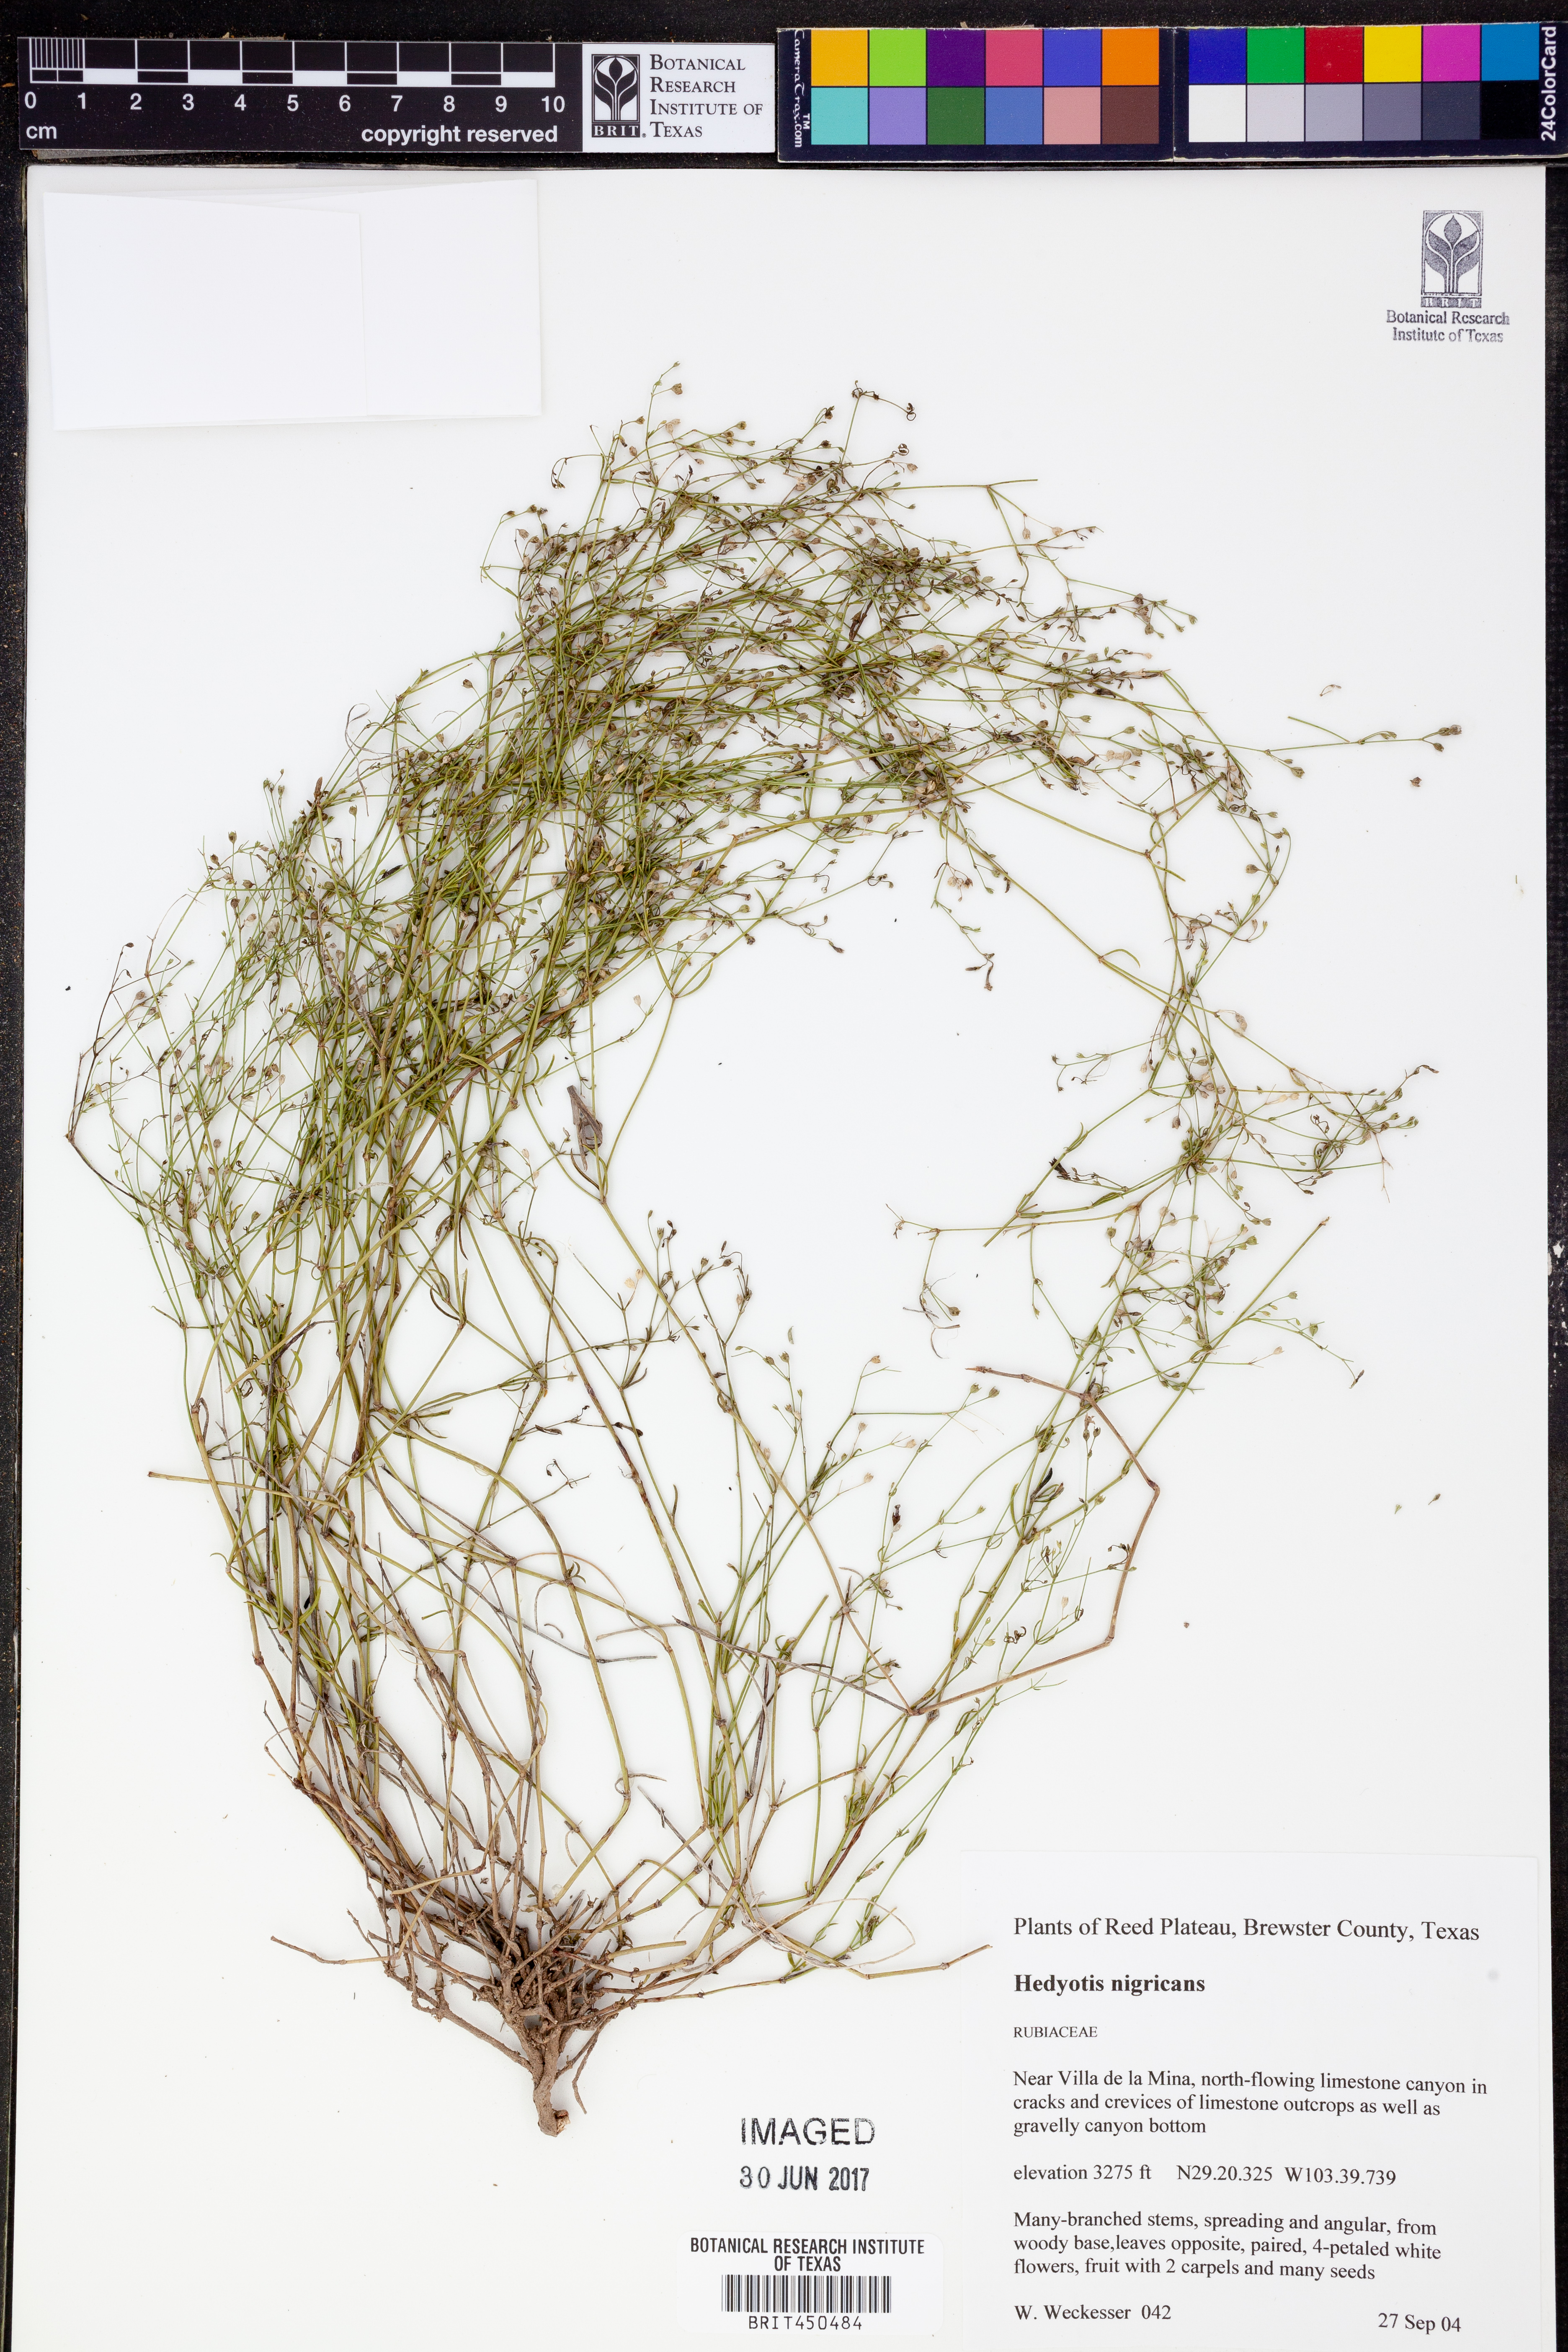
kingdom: Plantae
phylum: Tracheophyta
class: Magnoliopsida
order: Gentianales
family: Rubiaceae
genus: Stenaria
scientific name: Stenaria nigricans
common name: Diamondflowers
